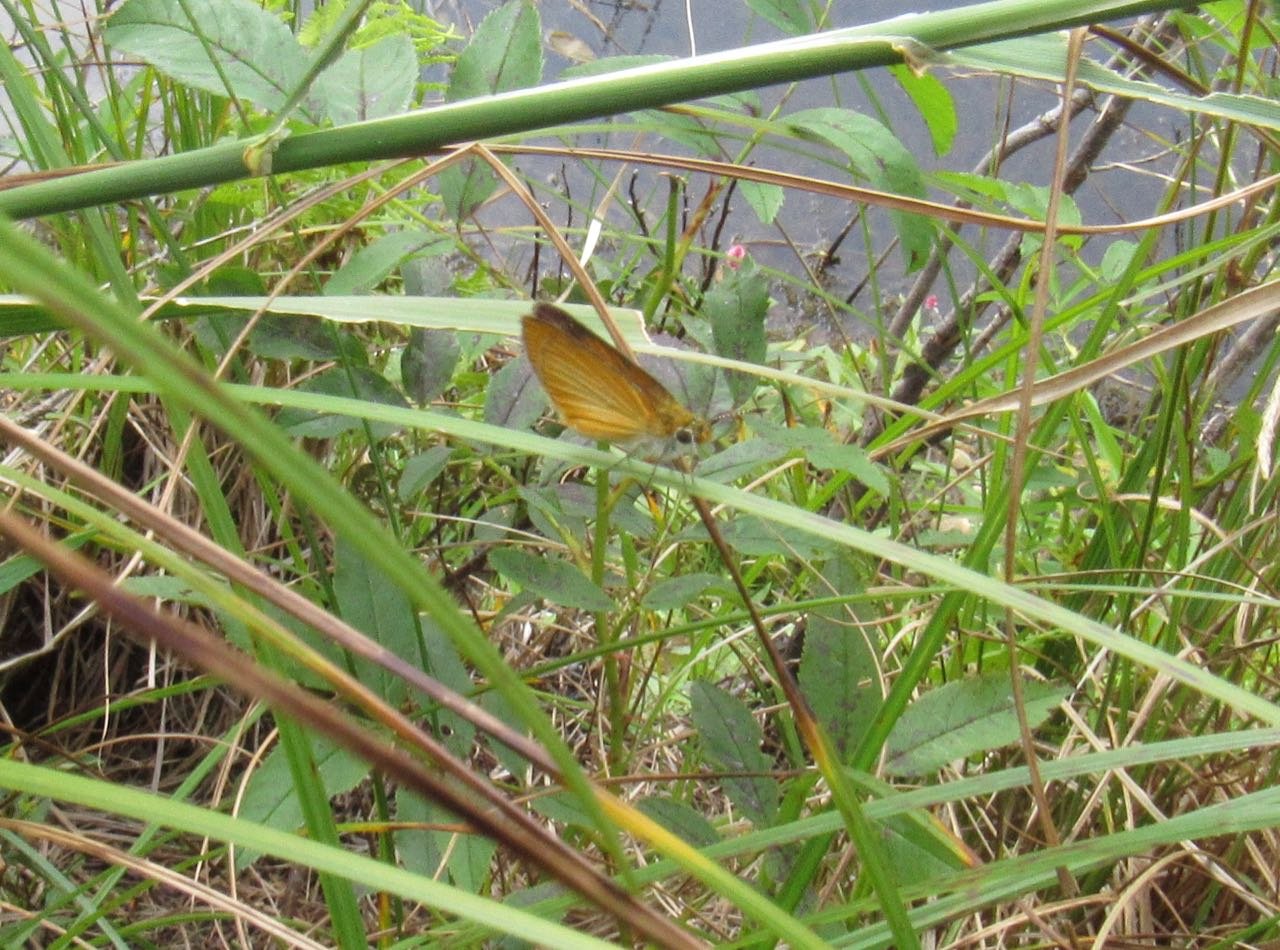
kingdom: Animalia
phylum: Arthropoda
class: Insecta
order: Lepidoptera
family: Hesperiidae
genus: Ancyloxypha
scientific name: Ancyloxypha numitor
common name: Least Skipper
